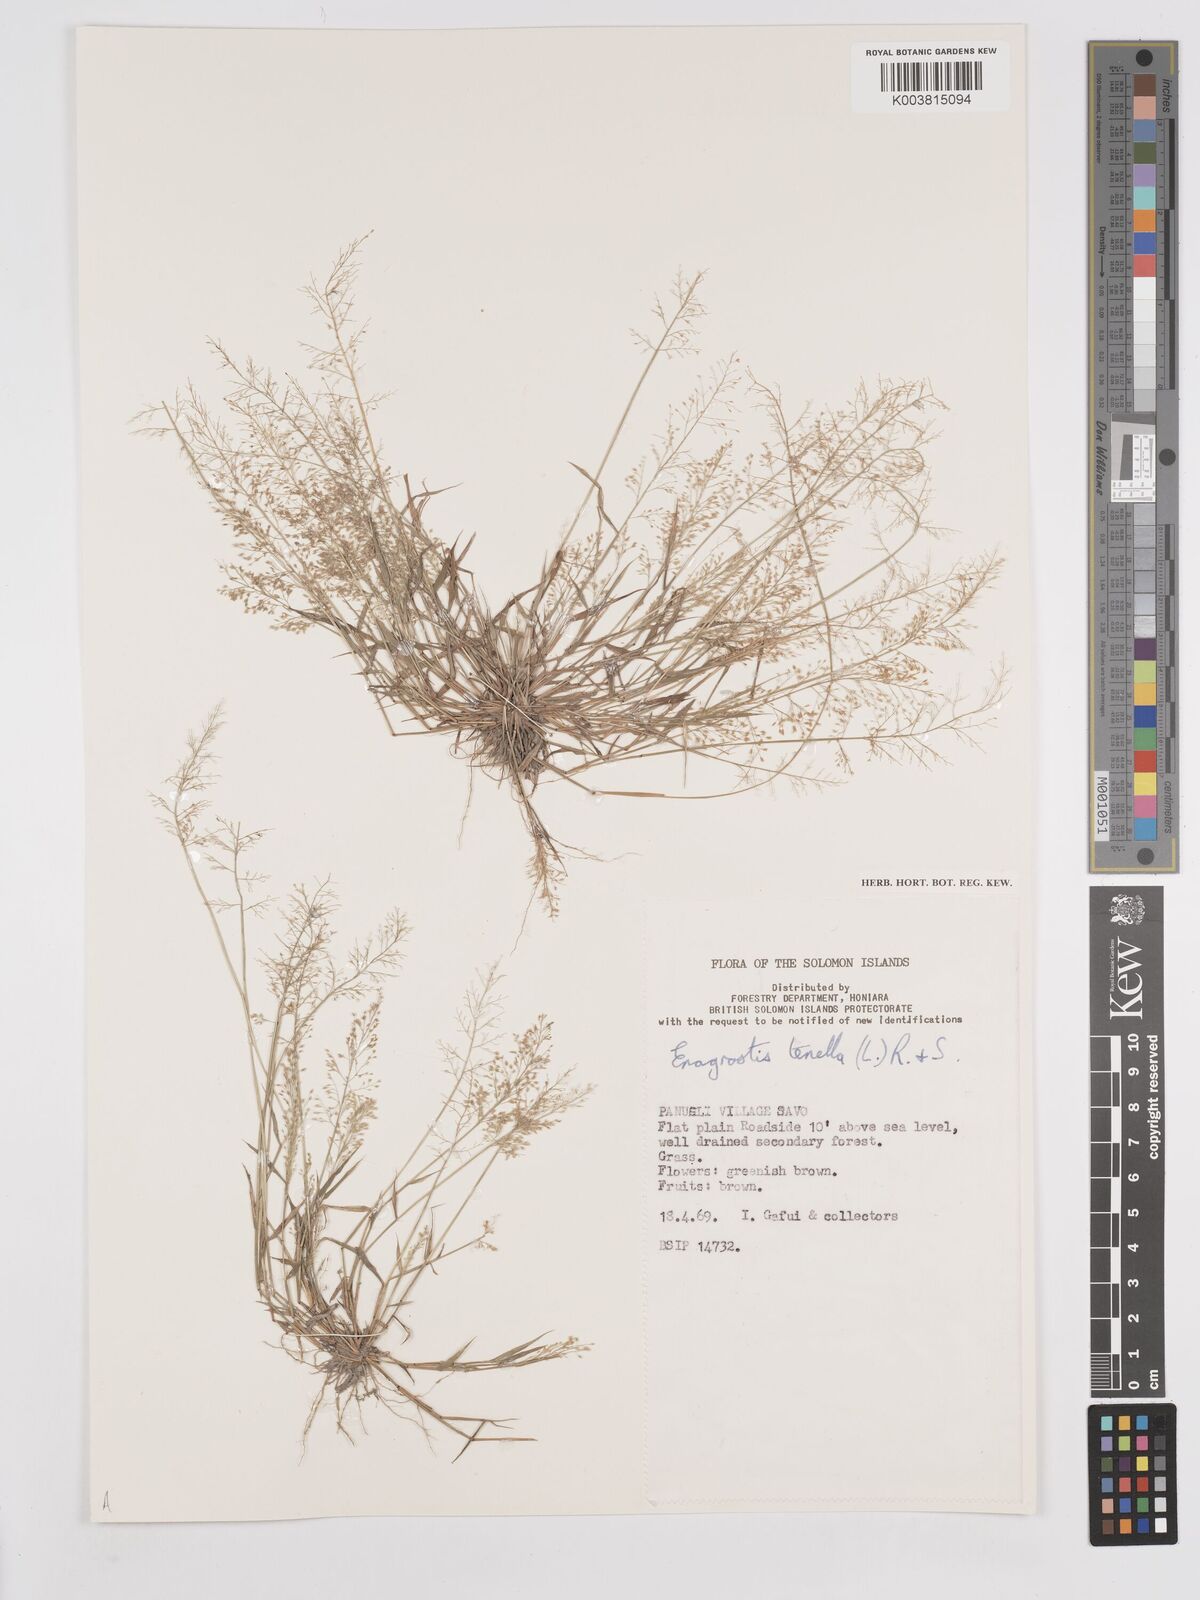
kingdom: Plantae
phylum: Tracheophyta
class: Liliopsida
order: Poales
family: Poaceae
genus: Eragrostis
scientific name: Eragrostis tenella
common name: Japanese lovegrass
